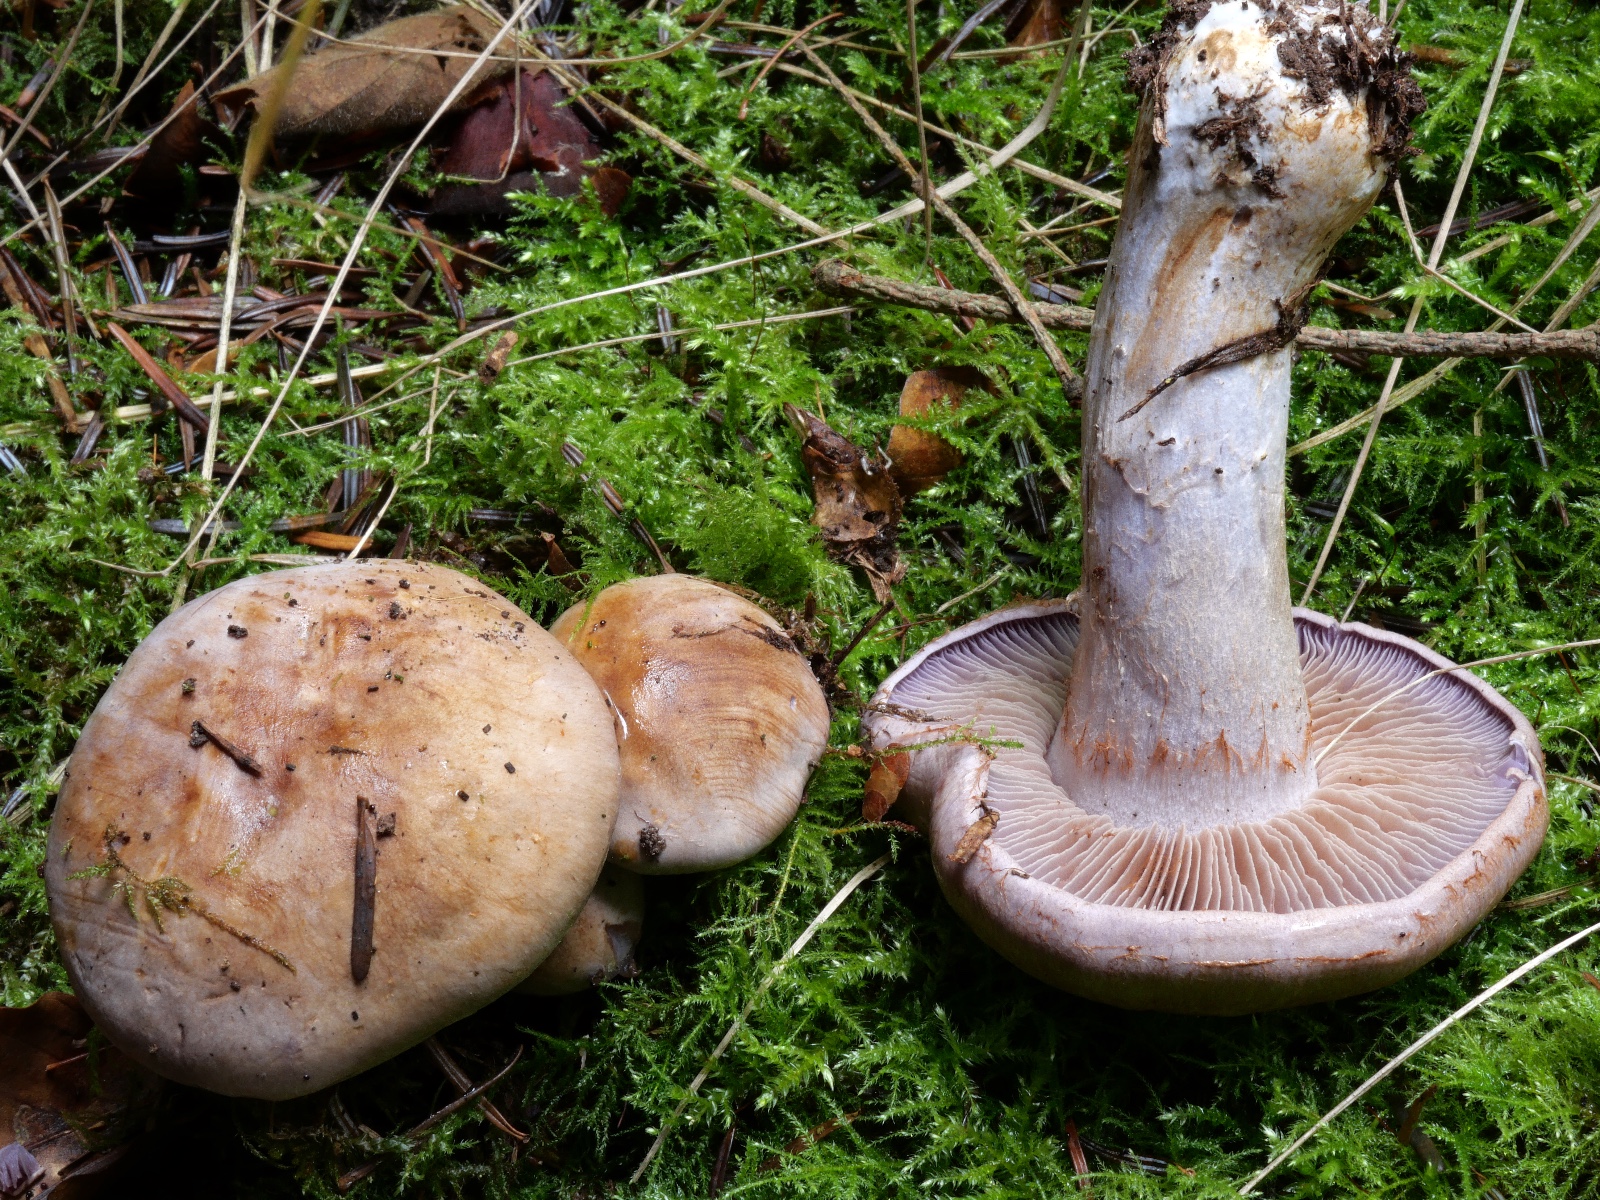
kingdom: Fungi
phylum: Basidiomycota
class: Agaricomycetes
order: Agaricales
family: Cortinariaceae
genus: Phlegmacium
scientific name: Phlegmacium eliae
